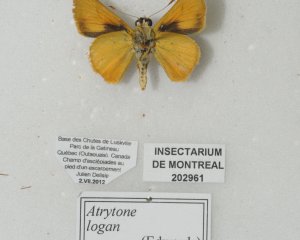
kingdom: Animalia
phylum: Arthropoda
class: Insecta
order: Lepidoptera
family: Hesperiidae
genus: Atrytone
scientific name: Atrytone delaware
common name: Delaware Skipper
